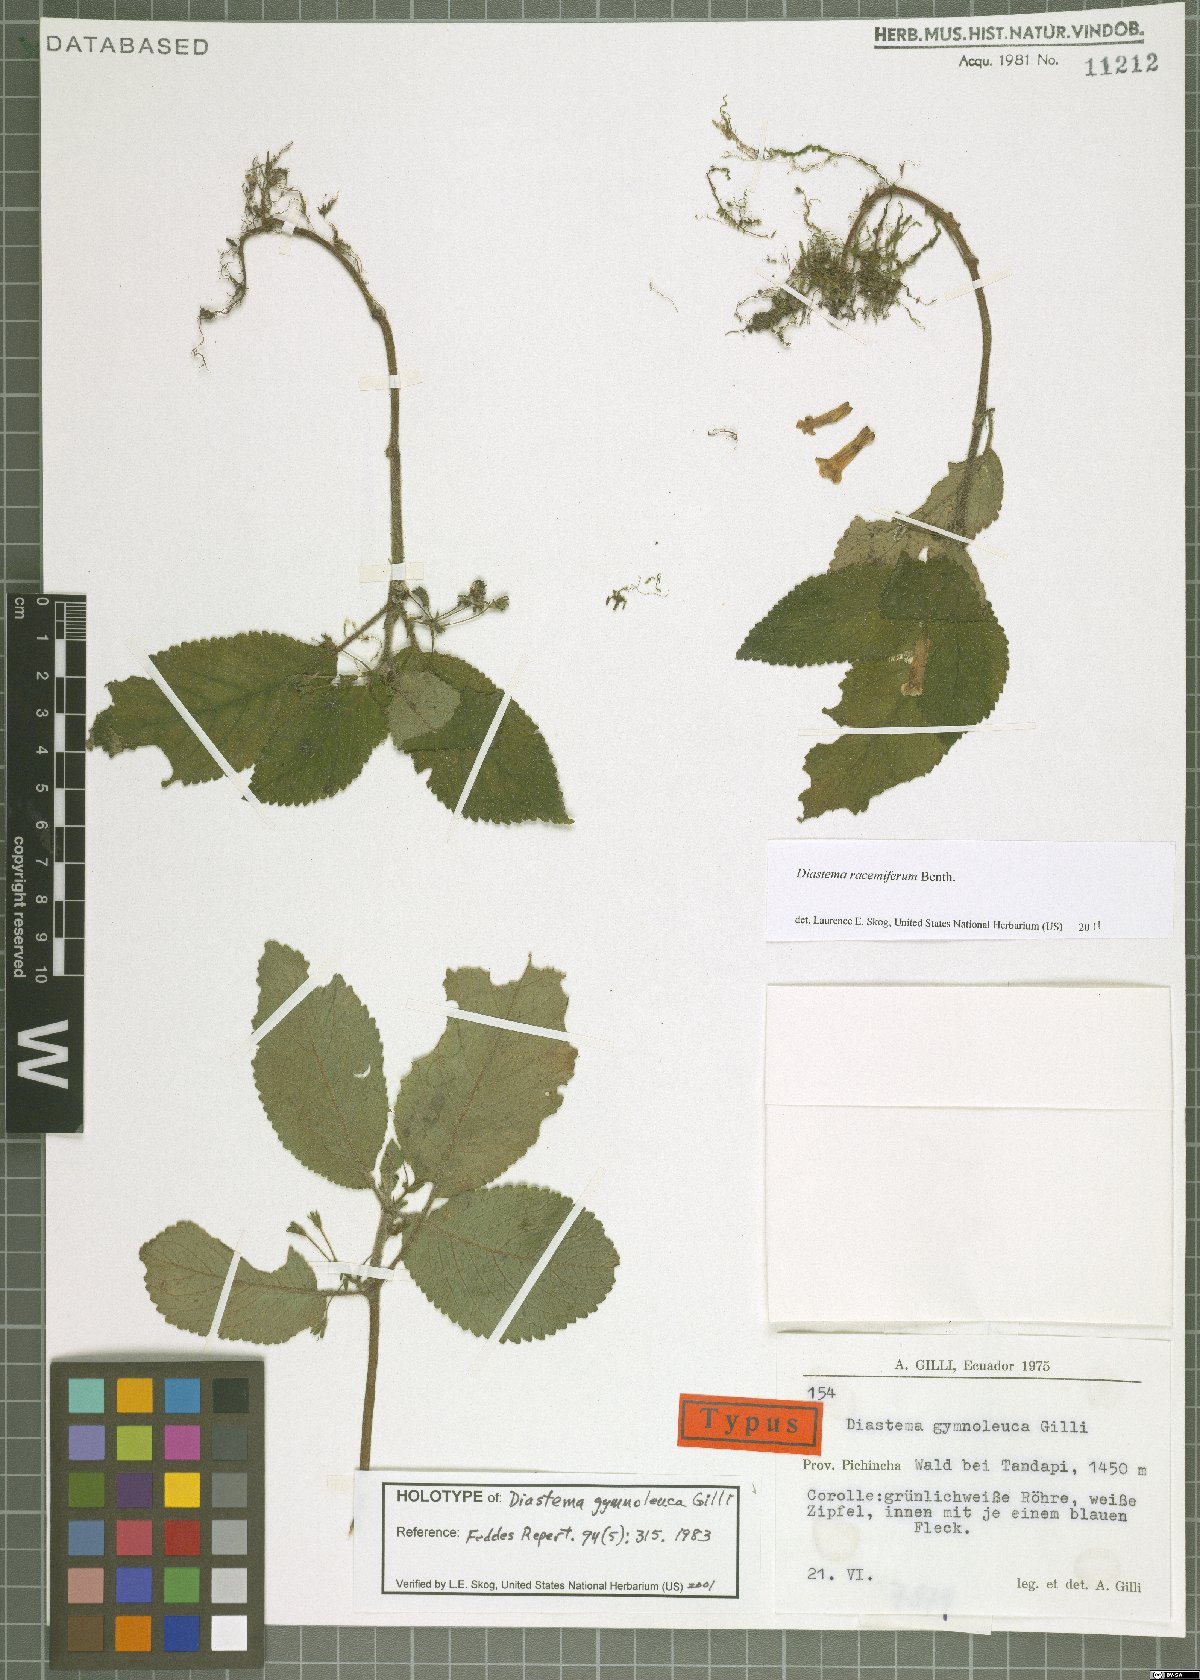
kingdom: Plantae
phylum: Tracheophyta
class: Magnoliopsida
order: Lamiales
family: Gesneriaceae
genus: Diastema
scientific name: Diastema racemiferum
